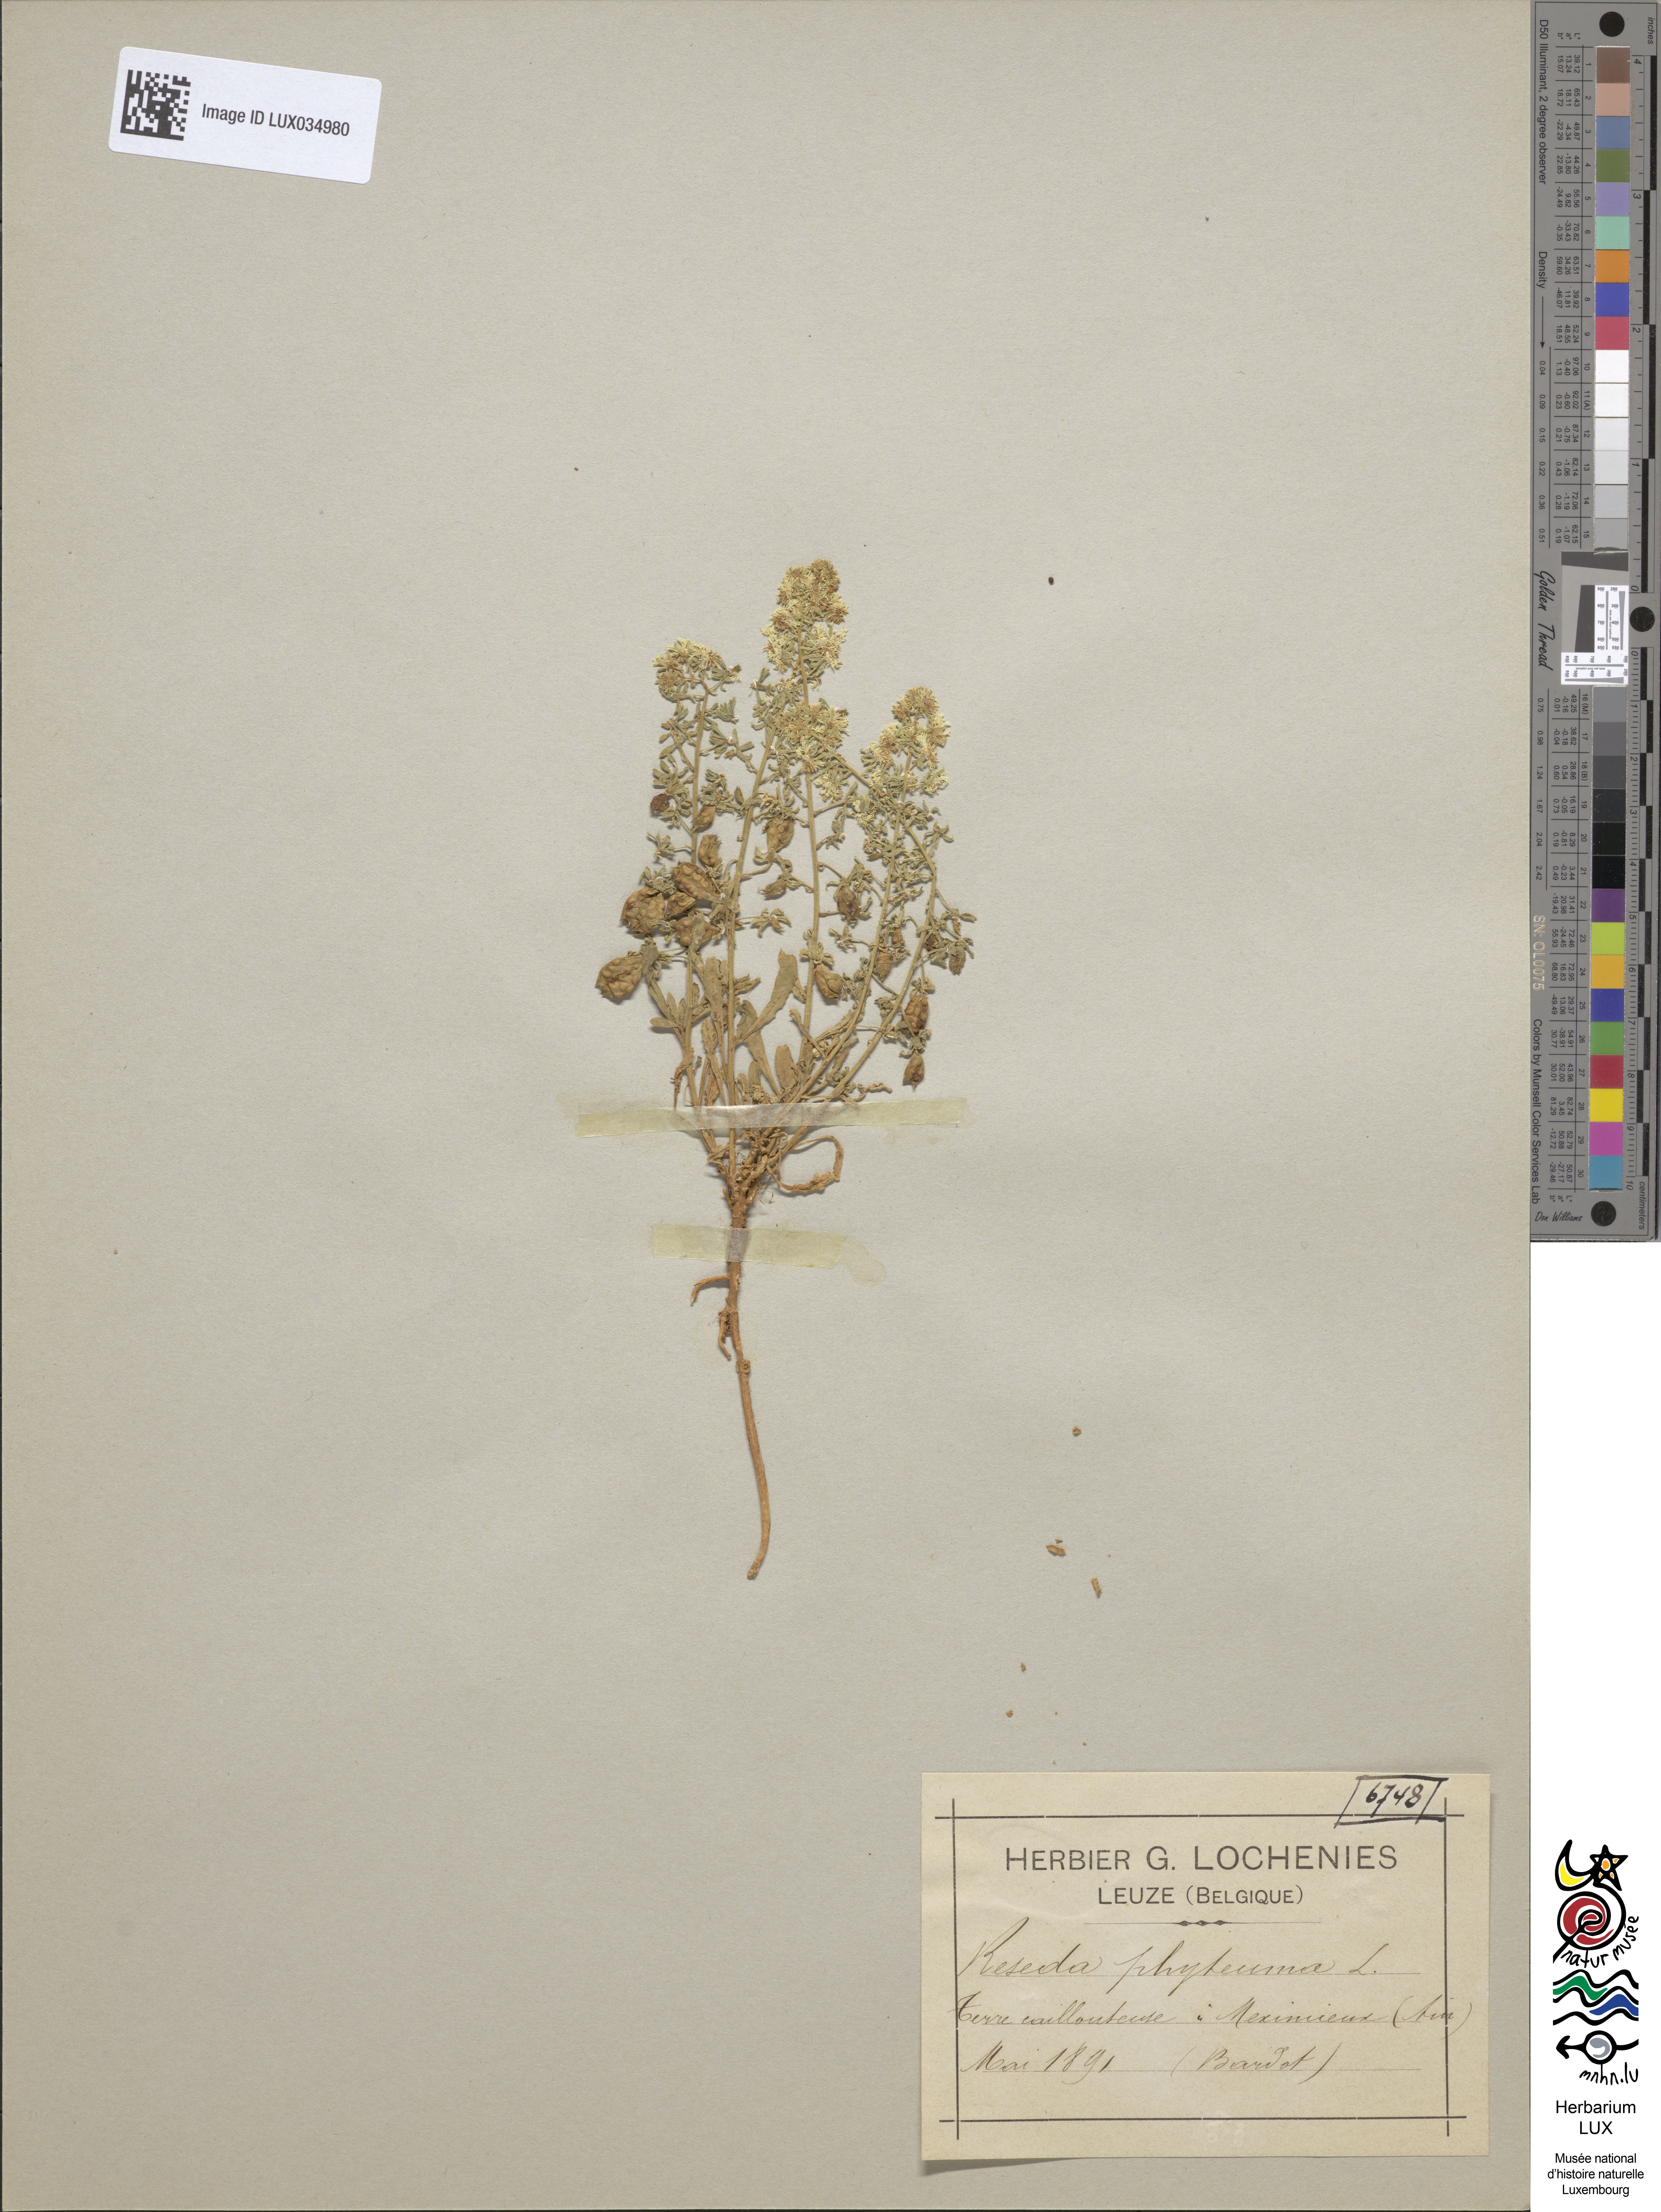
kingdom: Plantae
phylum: Tracheophyta
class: Magnoliopsida
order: Brassicales
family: Resedaceae
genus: Reseda
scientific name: Reseda phyteuma
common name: Corn mignonette
